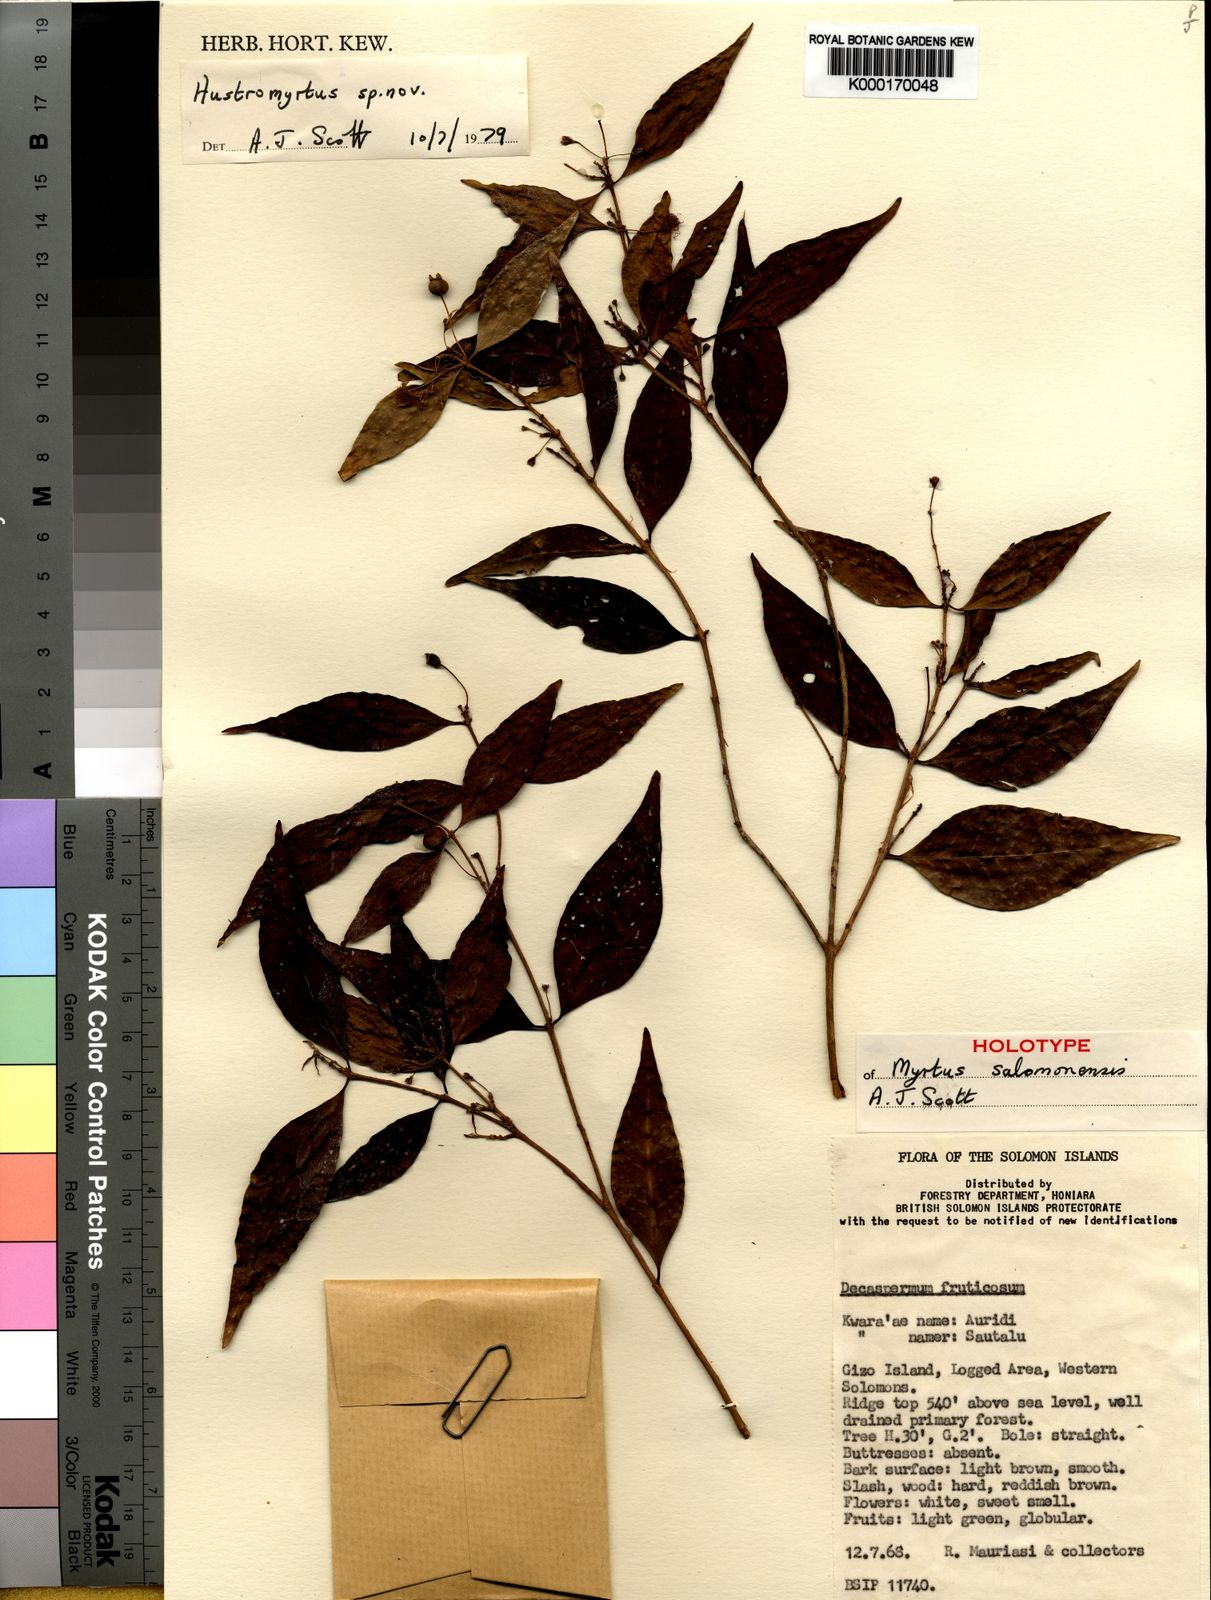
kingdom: Plantae
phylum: Tracheophyta
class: Magnoliopsida
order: Myrtales
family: Myrtaceae
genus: Gossia
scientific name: Gossia salomonensis
